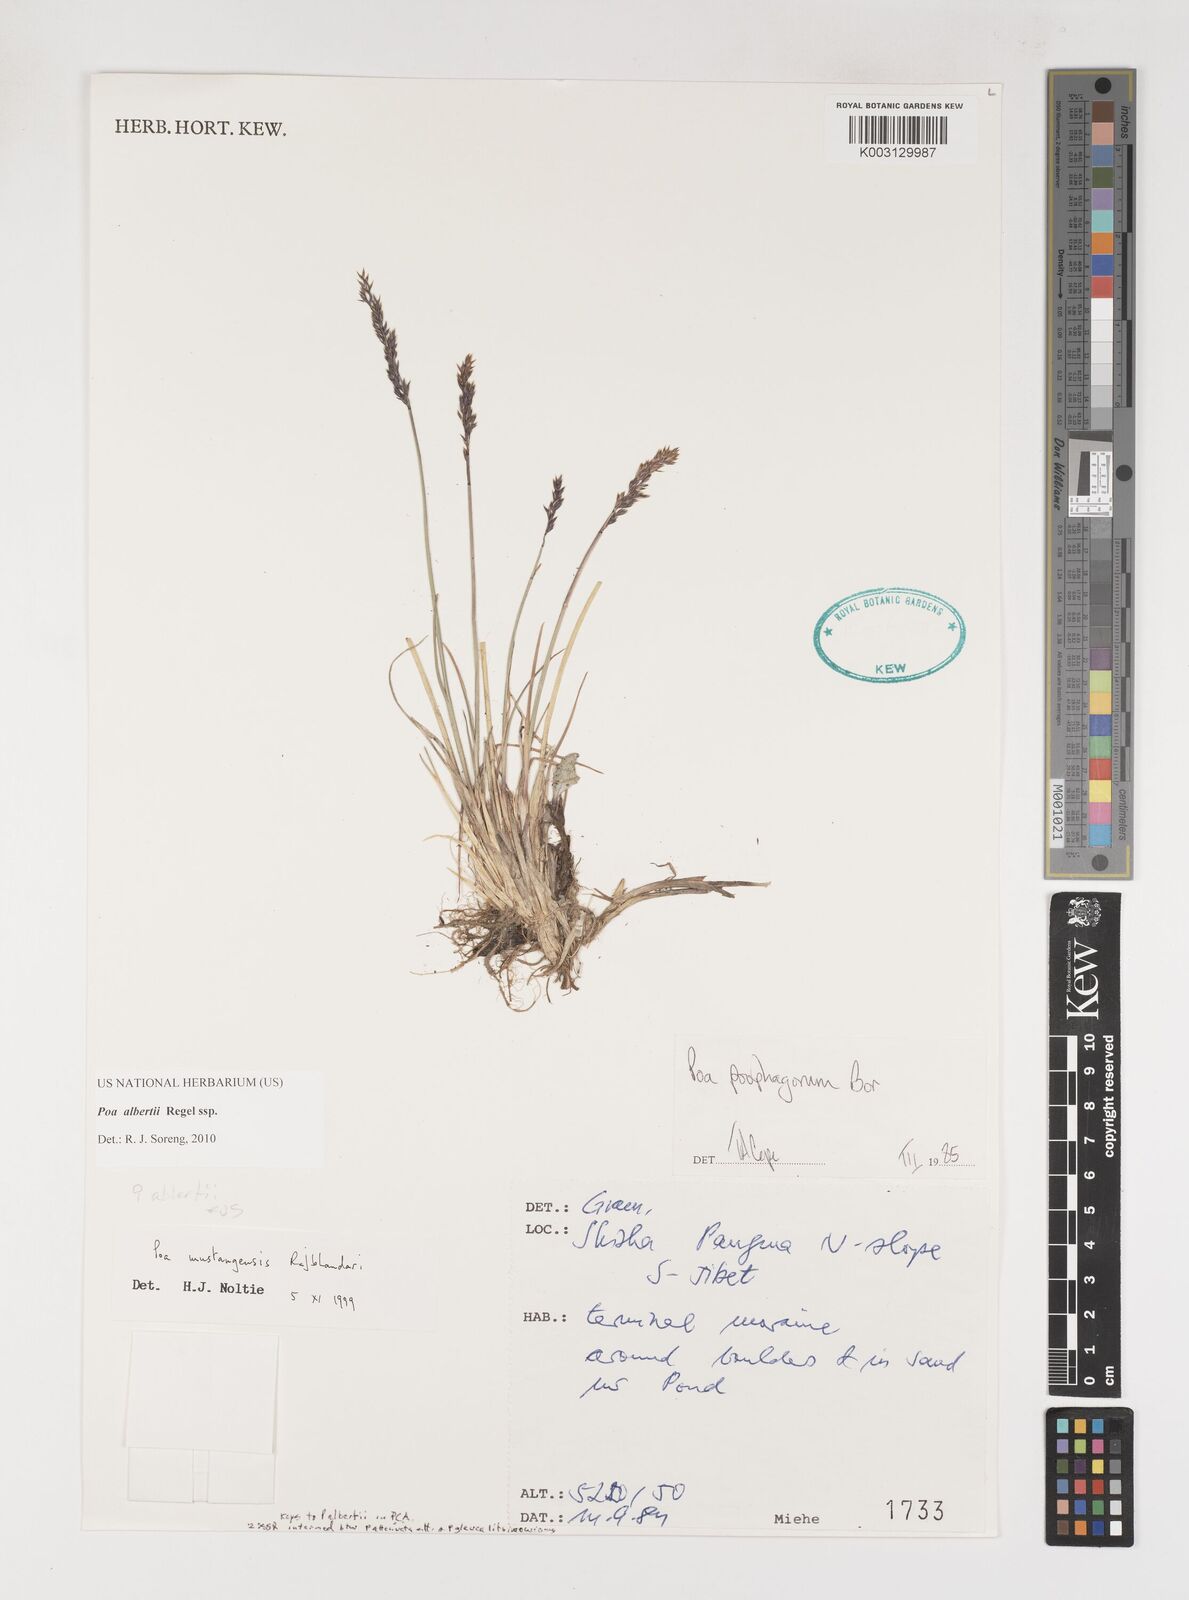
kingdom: Plantae
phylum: Tracheophyta
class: Liliopsida
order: Poales
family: Poaceae
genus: Poa
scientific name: Poa alberti
